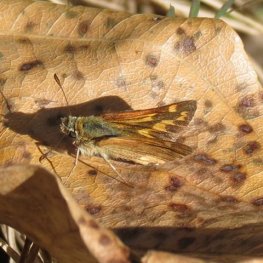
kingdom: Animalia
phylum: Arthropoda
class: Insecta
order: Lepidoptera
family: Hesperiidae
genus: Ochlodes
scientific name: Ochlodes sylvanoides
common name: Woodland Skipper
